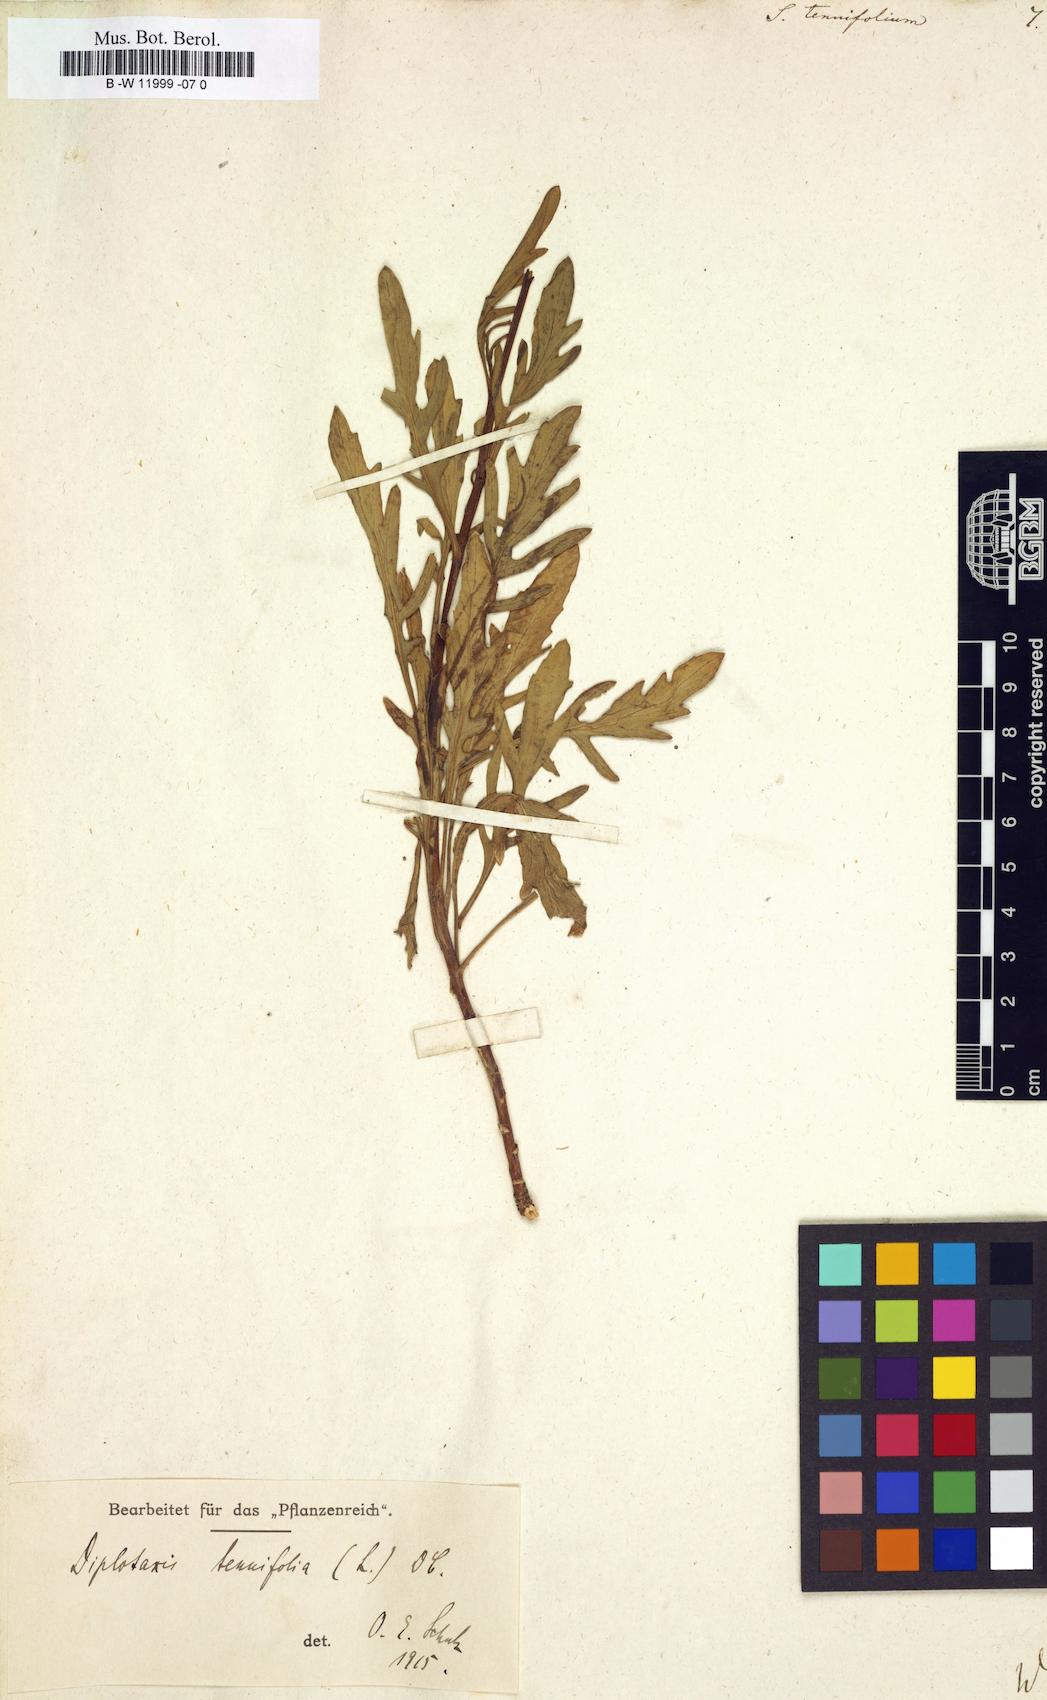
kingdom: Plantae
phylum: Tracheophyta
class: Magnoliopsida
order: Brassicales
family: Brassicaceae
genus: Sisymbrium
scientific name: Sisymbrium tenuifolium
